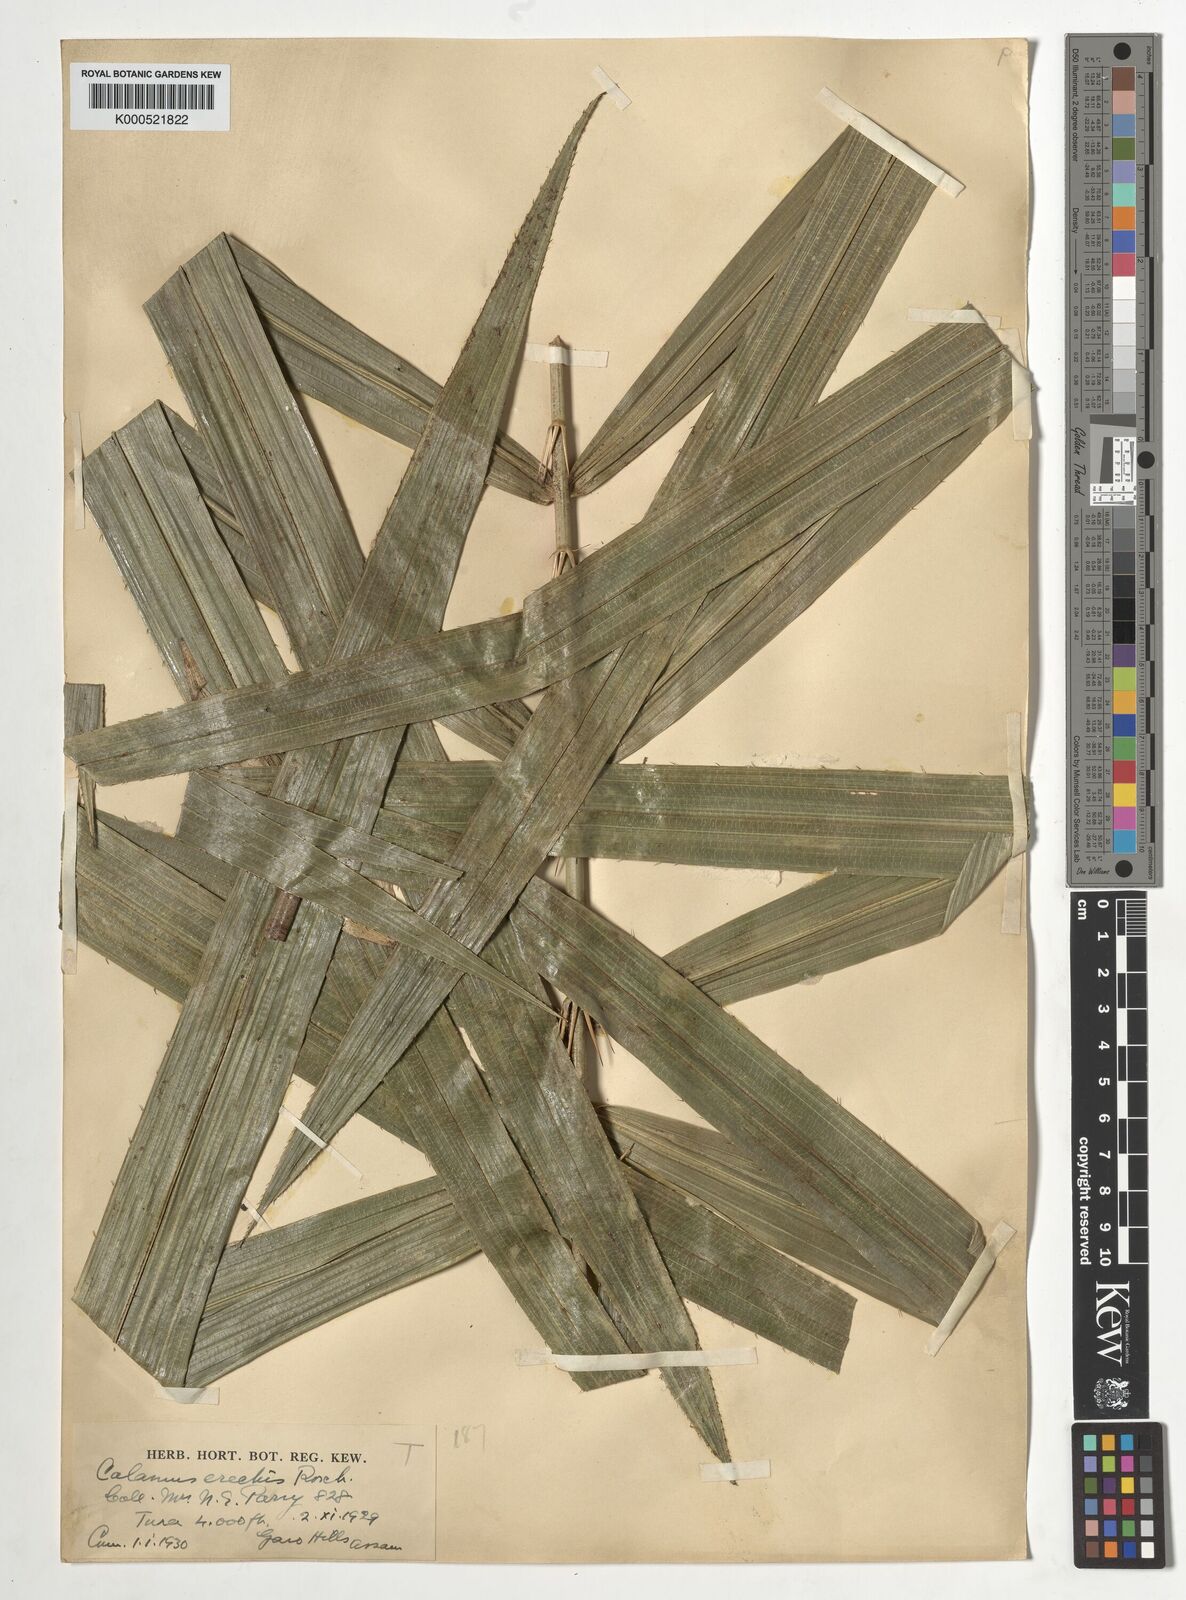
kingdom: Plantae
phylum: Tracheophyta
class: Liliopsida
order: Arecales
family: Arecaceae
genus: Calamus
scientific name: Calamus erectus
